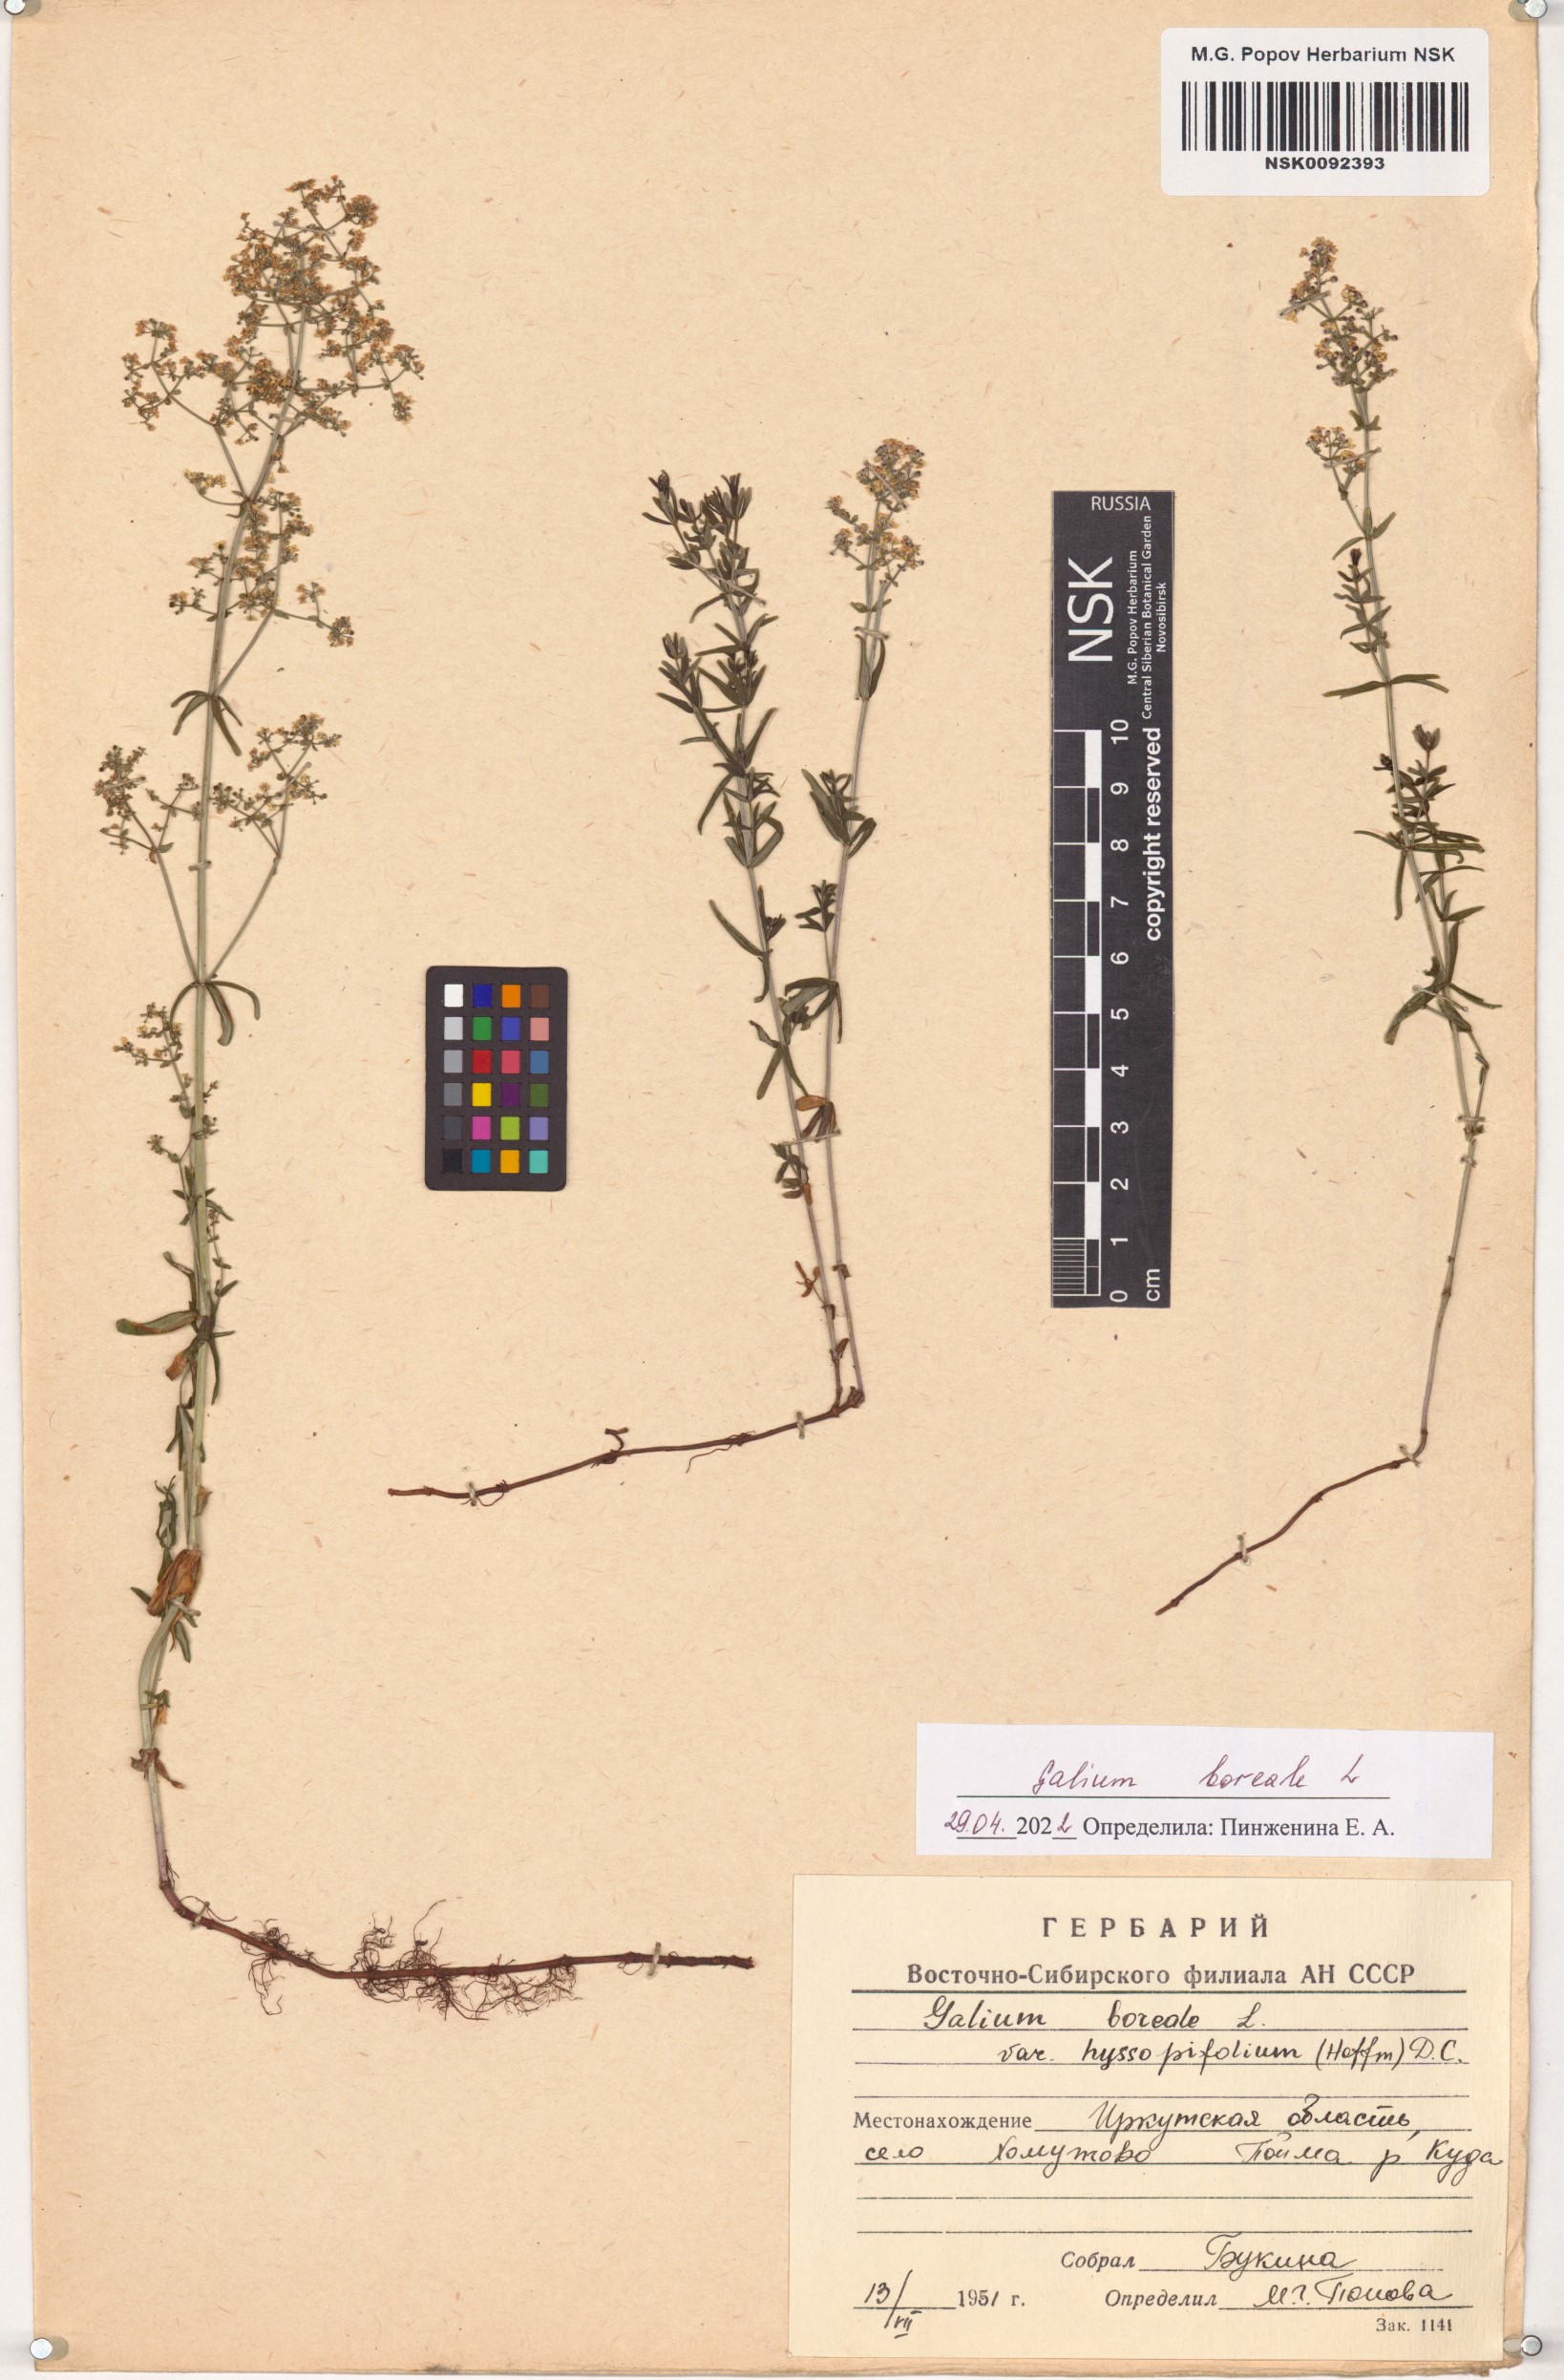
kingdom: Plantae
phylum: Tracheophyta
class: Magnoliopsida
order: Gentianales
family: Rubiaceae
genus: Galium
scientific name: Galium boreale
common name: Northern bedstraw
